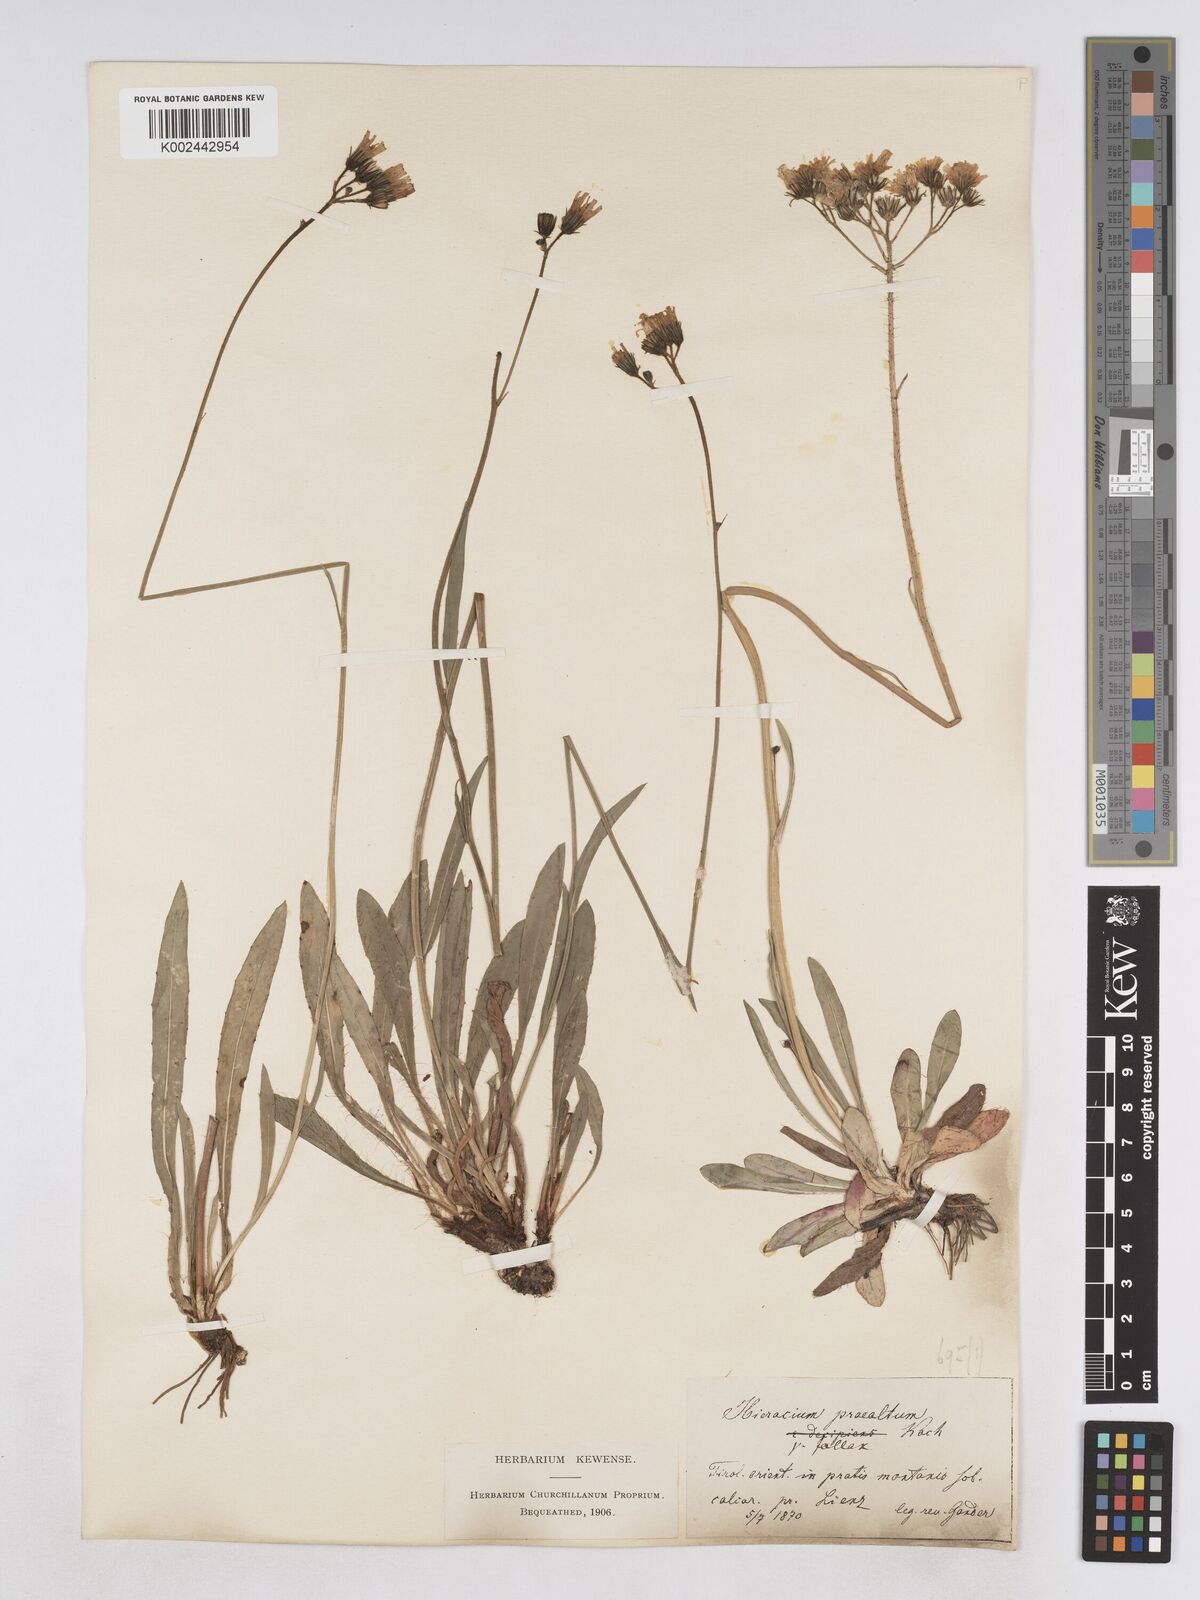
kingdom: Plantae
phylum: Tracheophyta
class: Magnoliopsida
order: Asterales
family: Asteraceae
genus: Pilosella
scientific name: Pilosella piloselloides
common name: Glaucous king-devil
